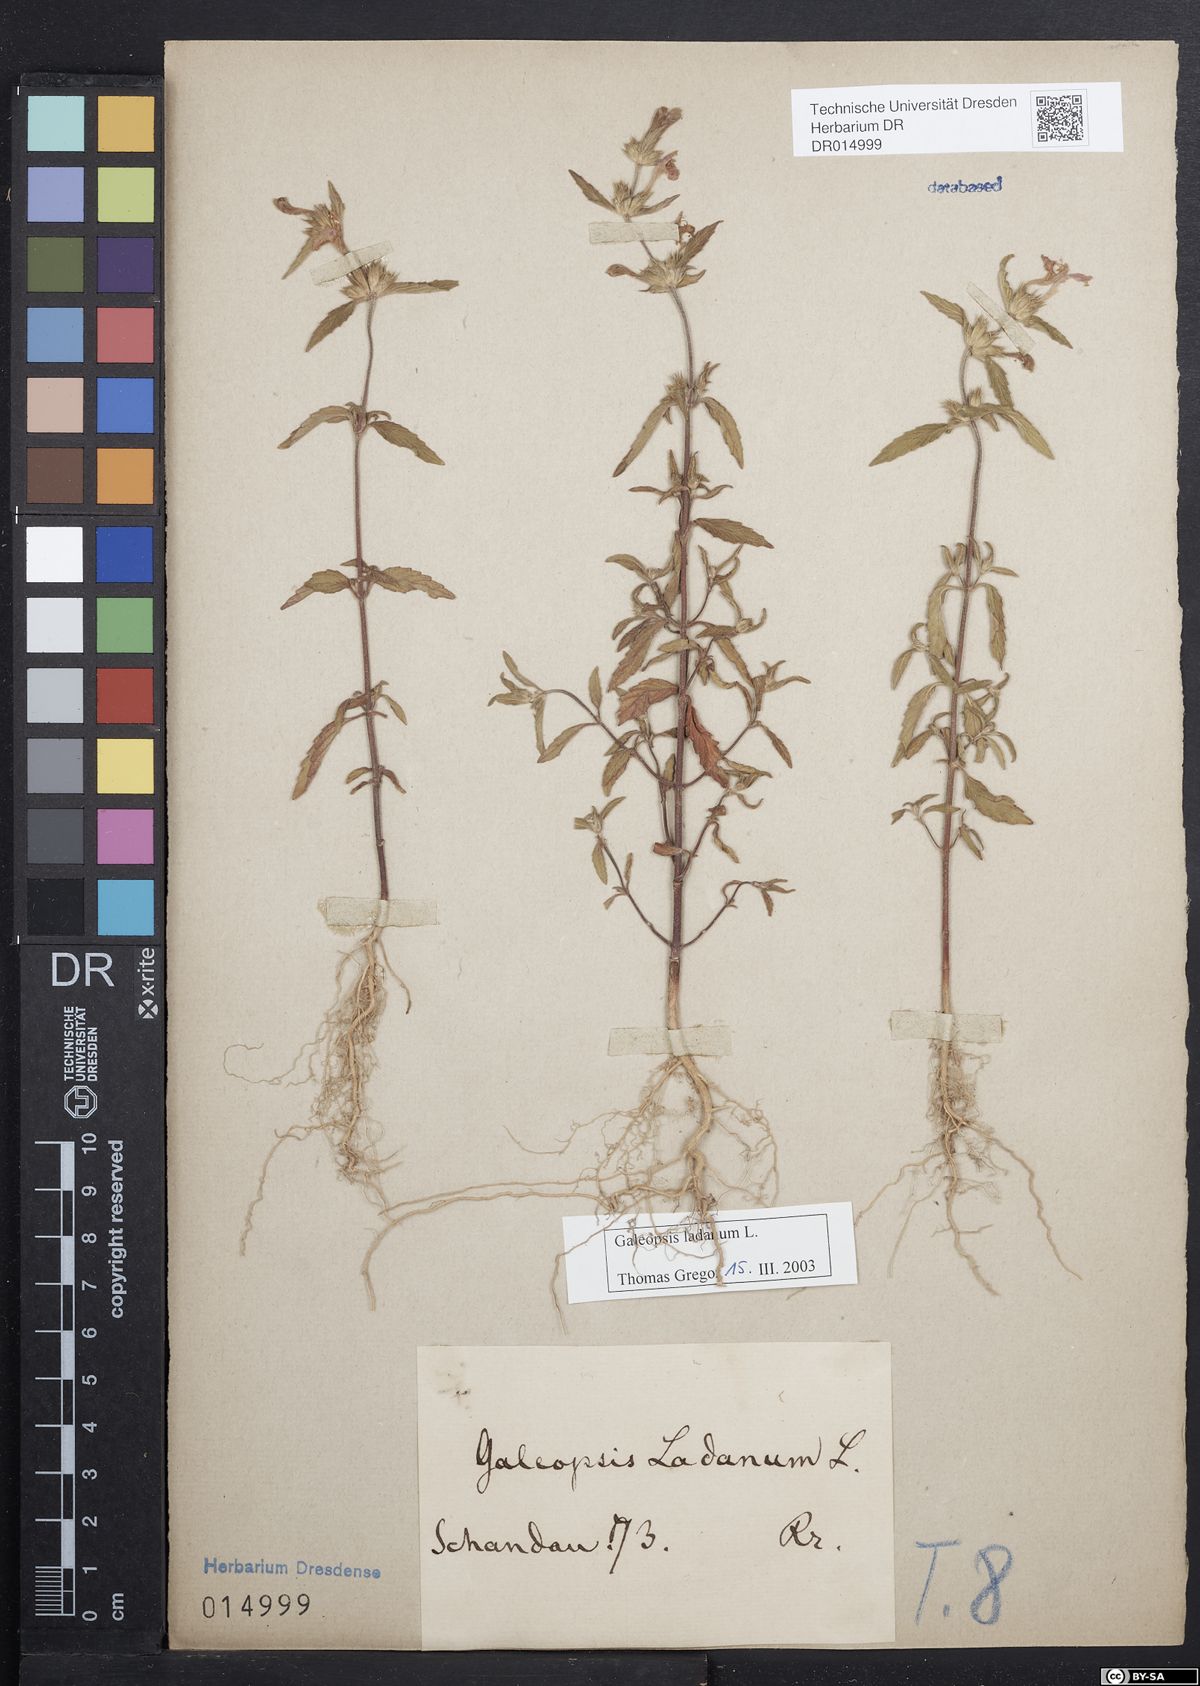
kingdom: Plantae
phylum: Tracheophyta
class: Magnoliopsida
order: Lamiales
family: Lamiaceae
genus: Galeopsis
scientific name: Galeopsis ladanum
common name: Broad-leaved hemp-nettle
